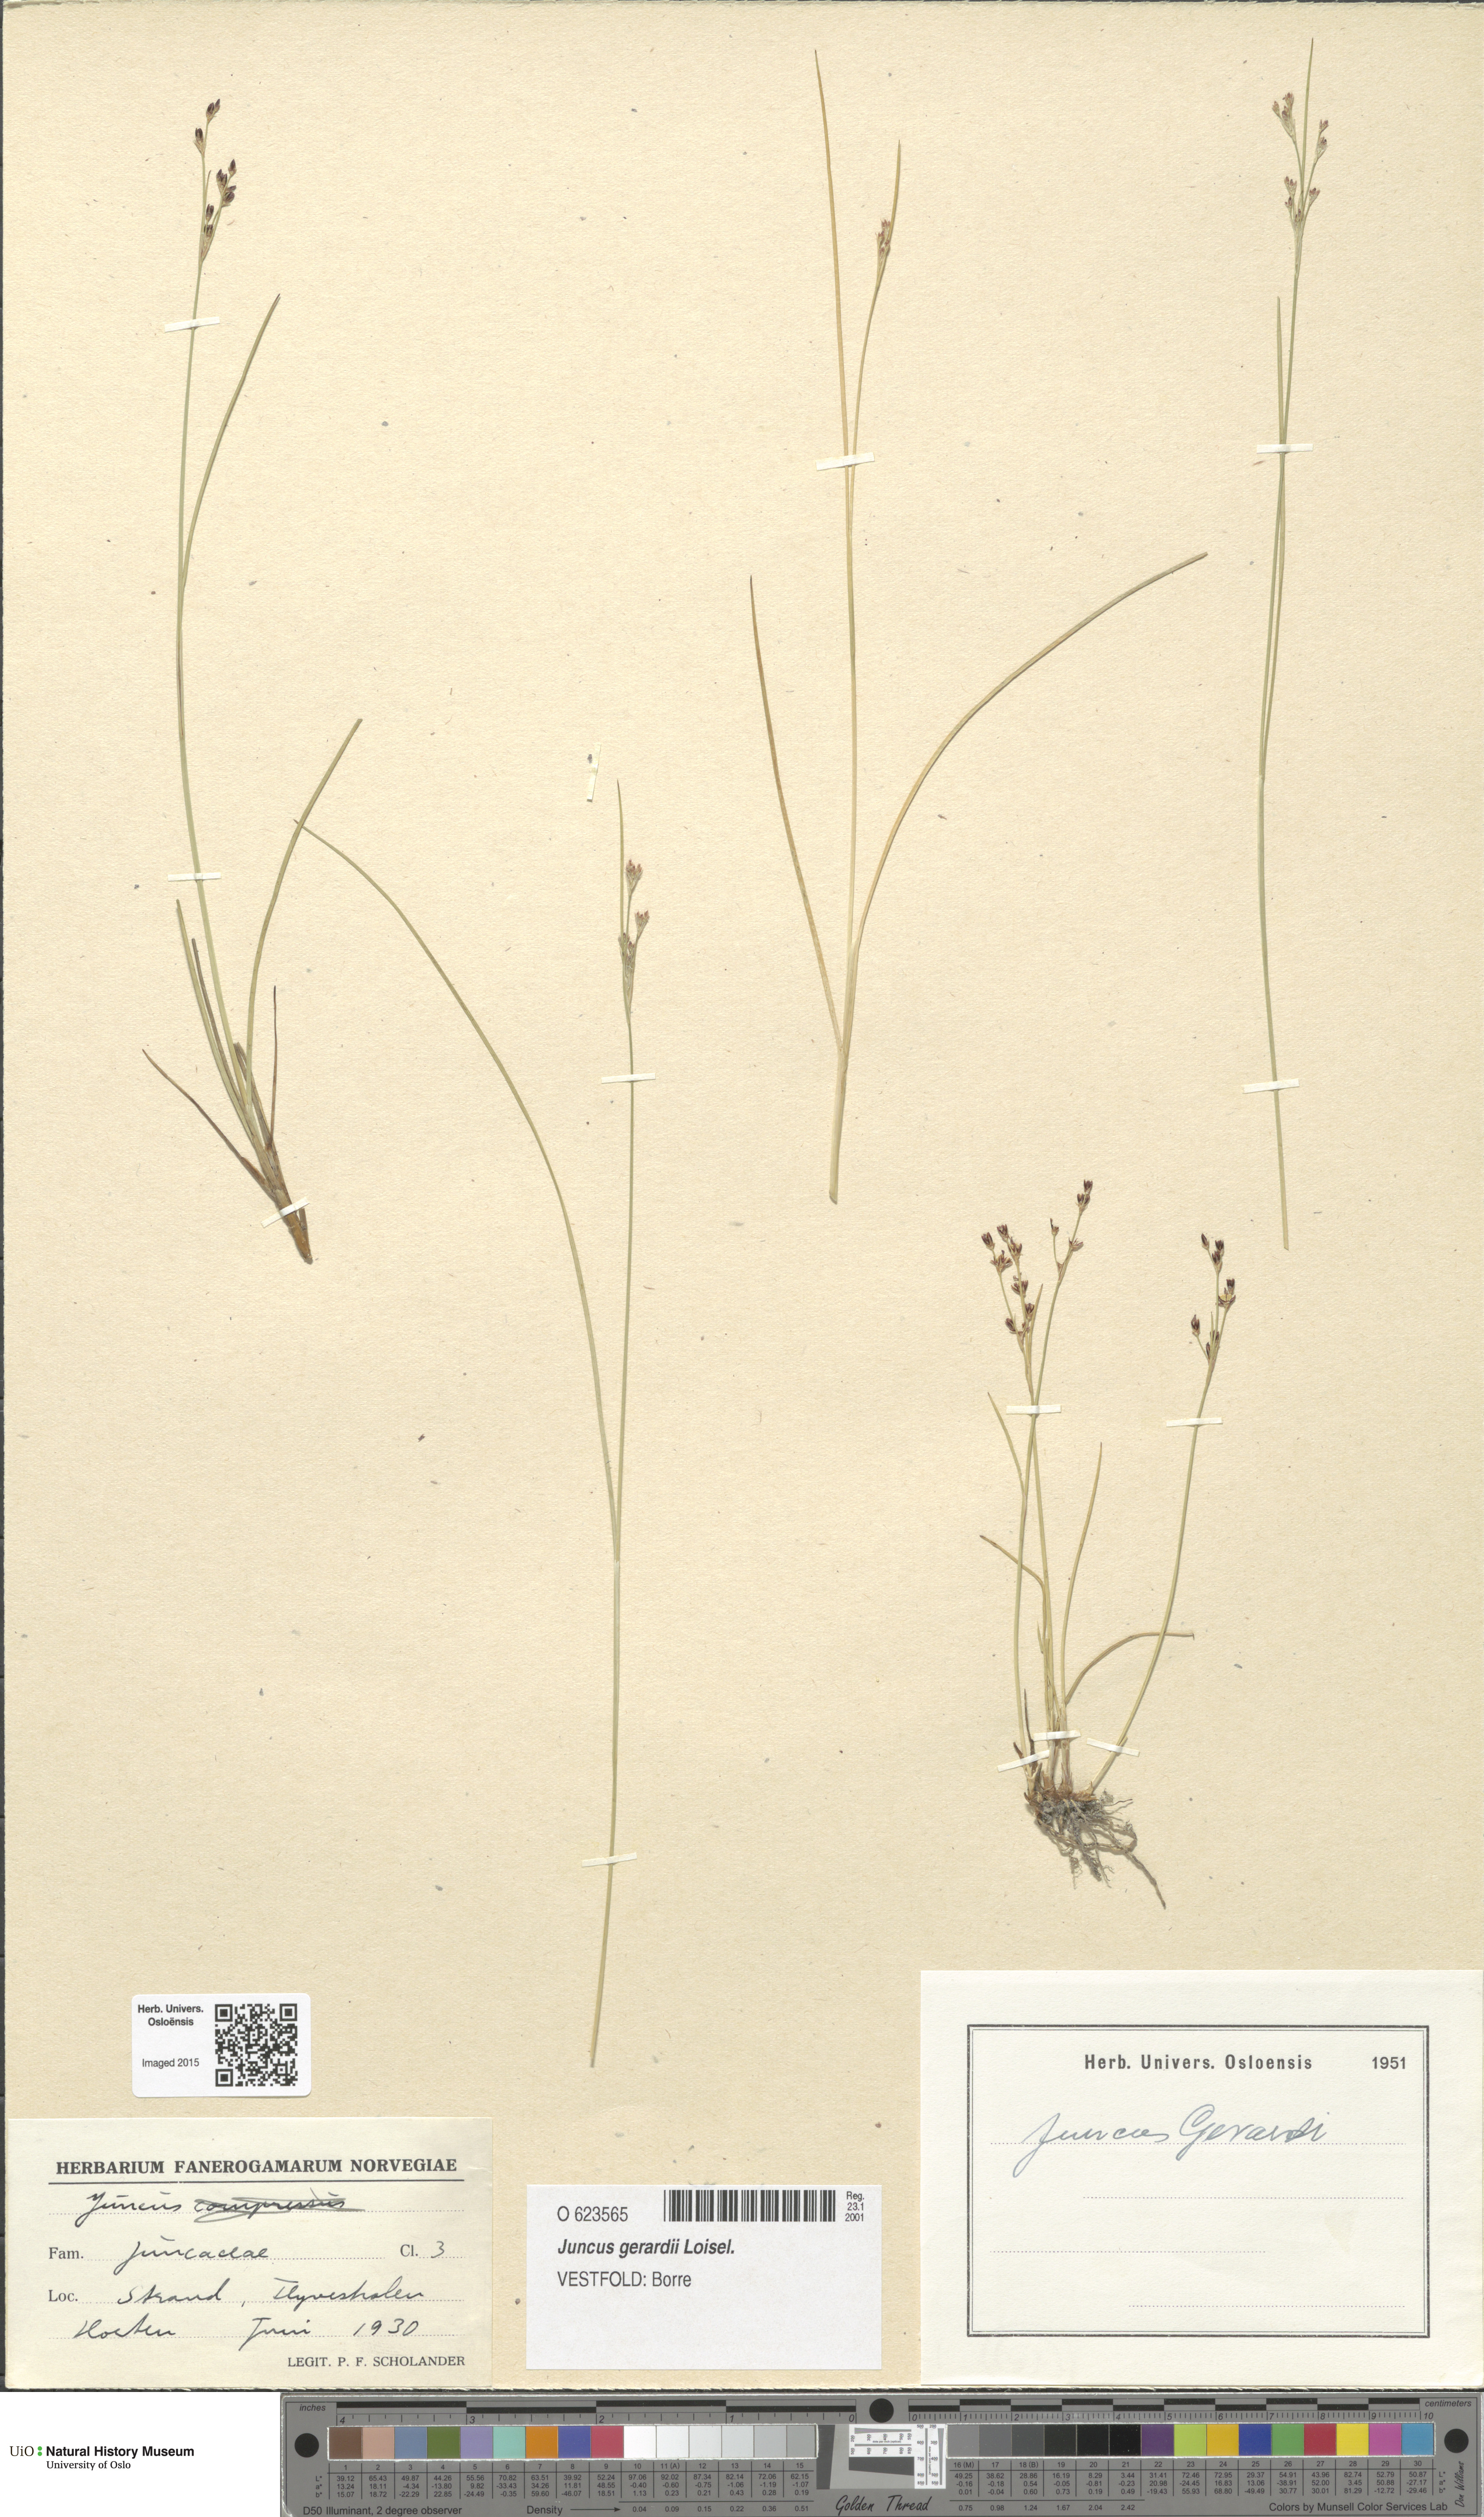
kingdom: Plantae
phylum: Tracheophyta
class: Liliopsida
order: Poales
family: Juncaceae
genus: Juncus
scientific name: Juncus gerardi
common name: Saltmarsh rush
